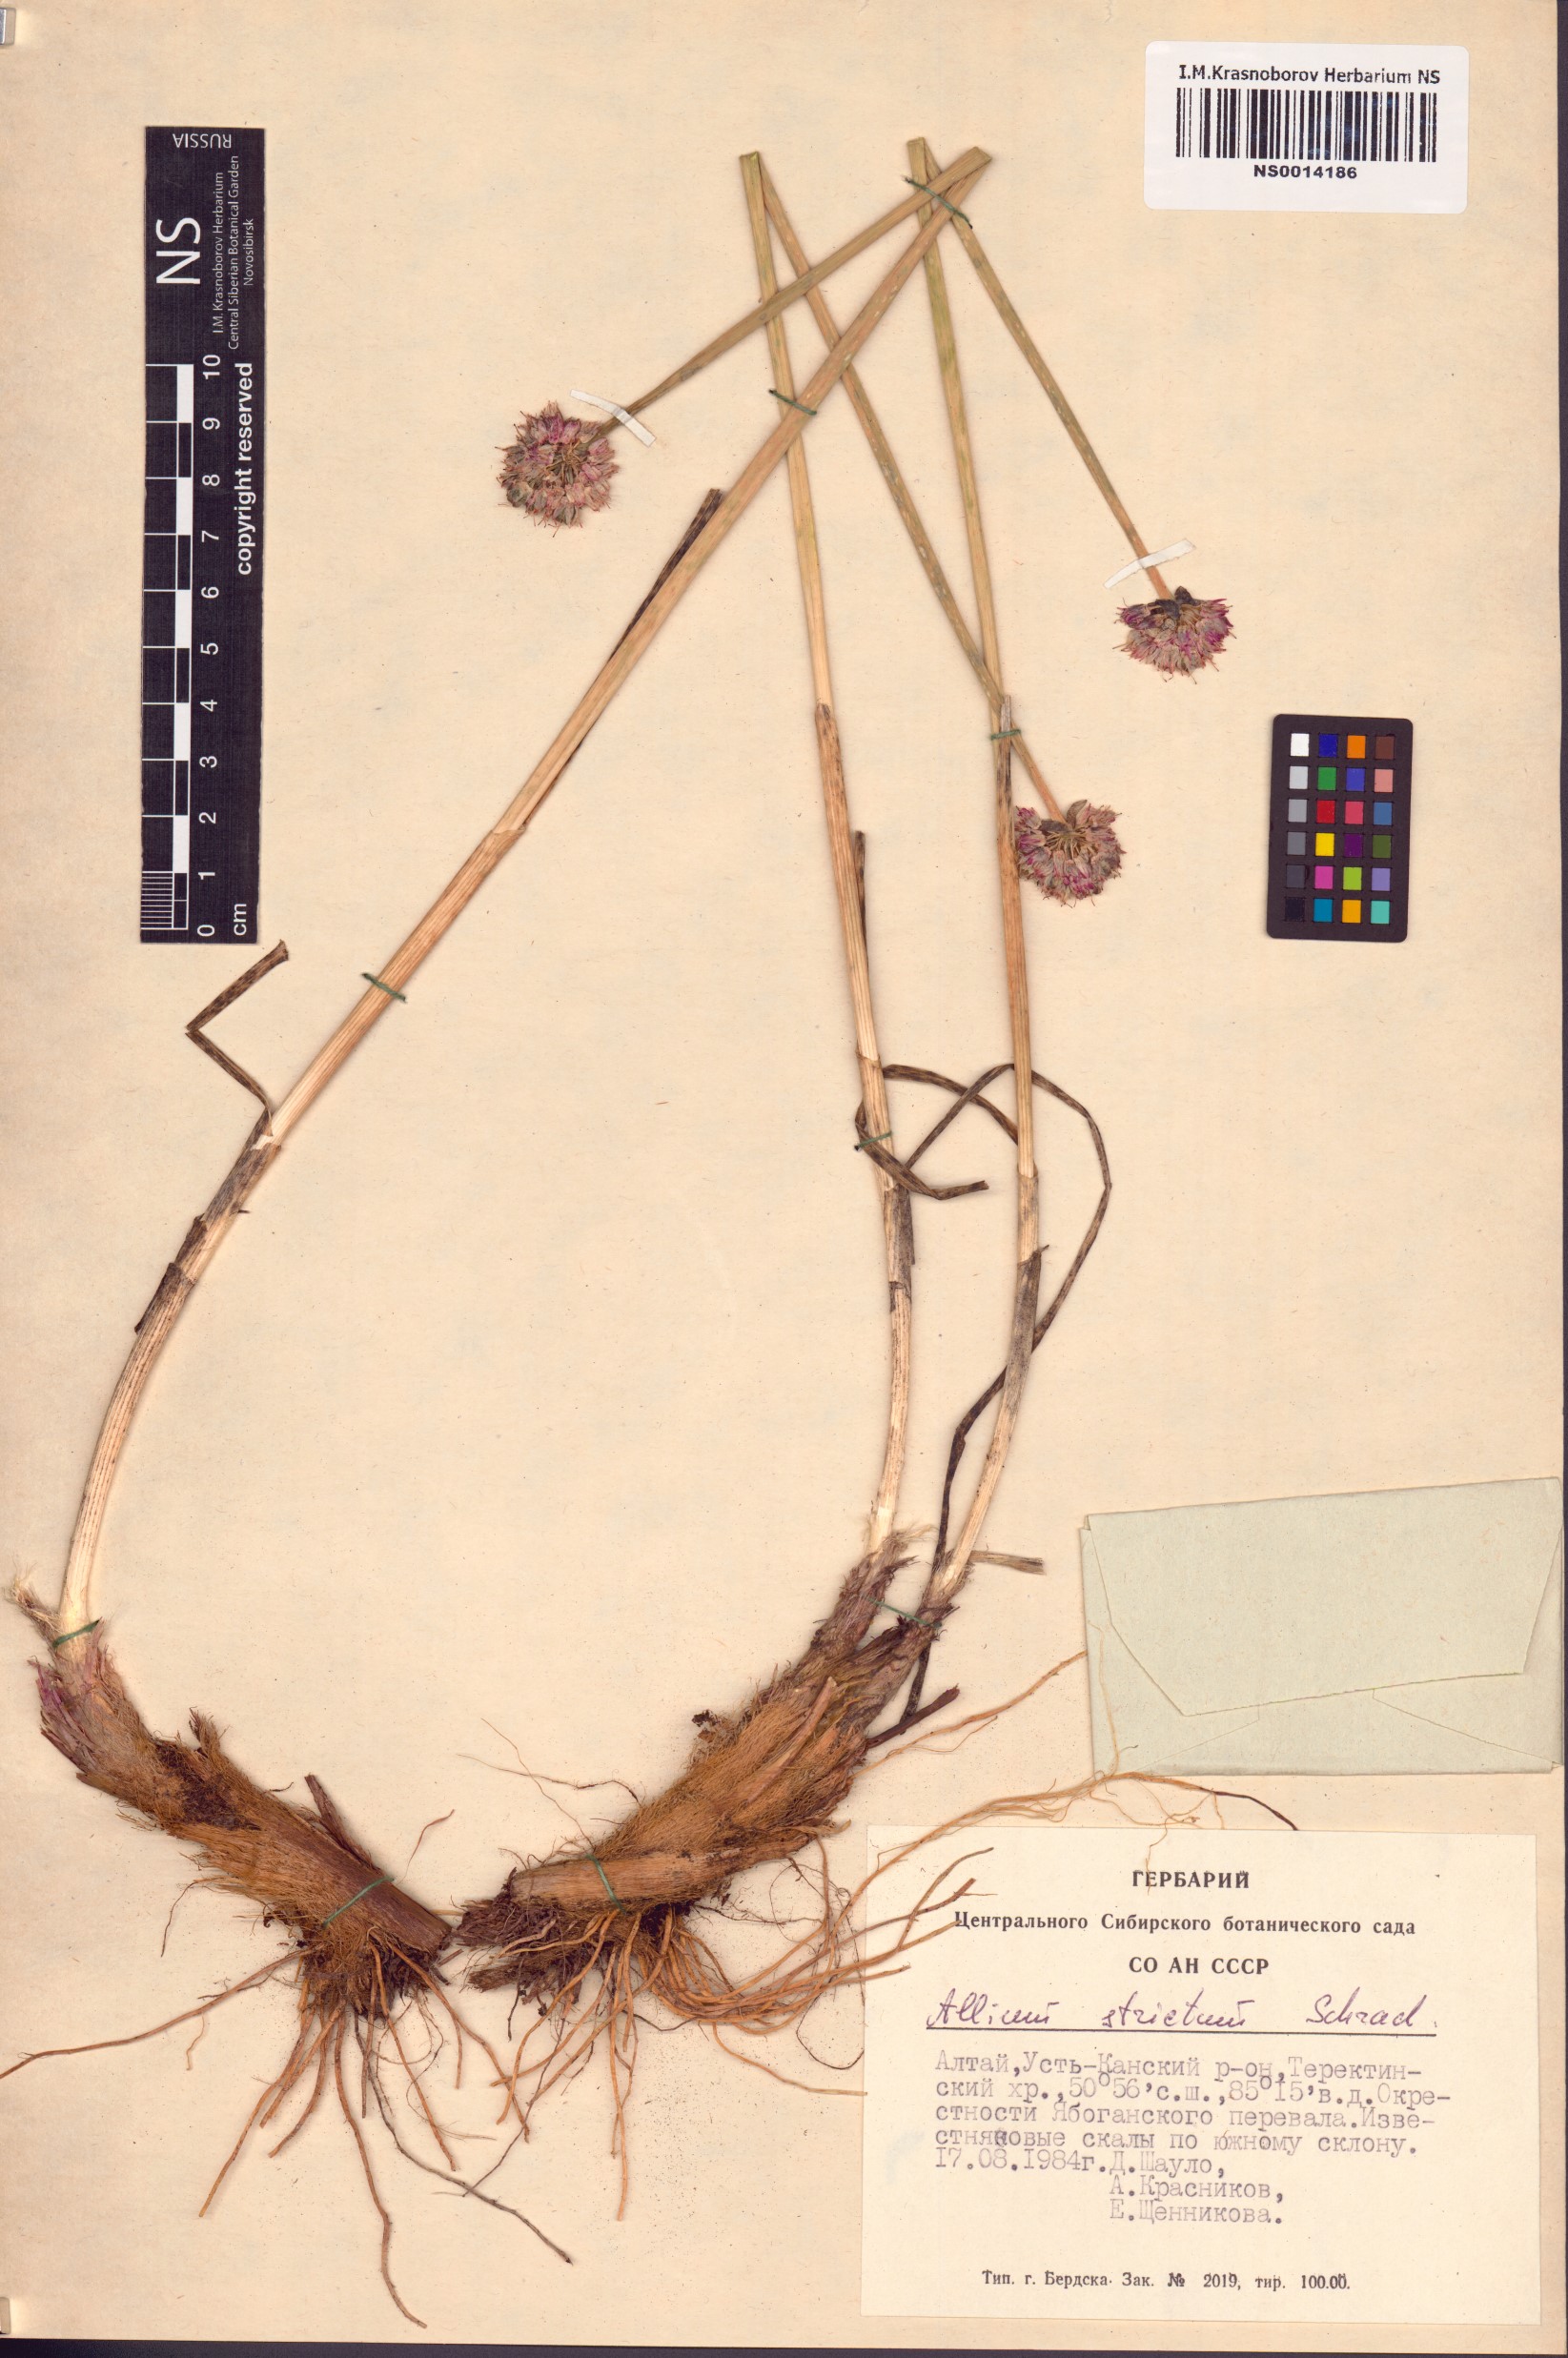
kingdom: Plantae
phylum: Tracheophyta
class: Liliopsida
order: Asparagales
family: Amaryllidaceae
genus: Allium
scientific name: Allium strictum
